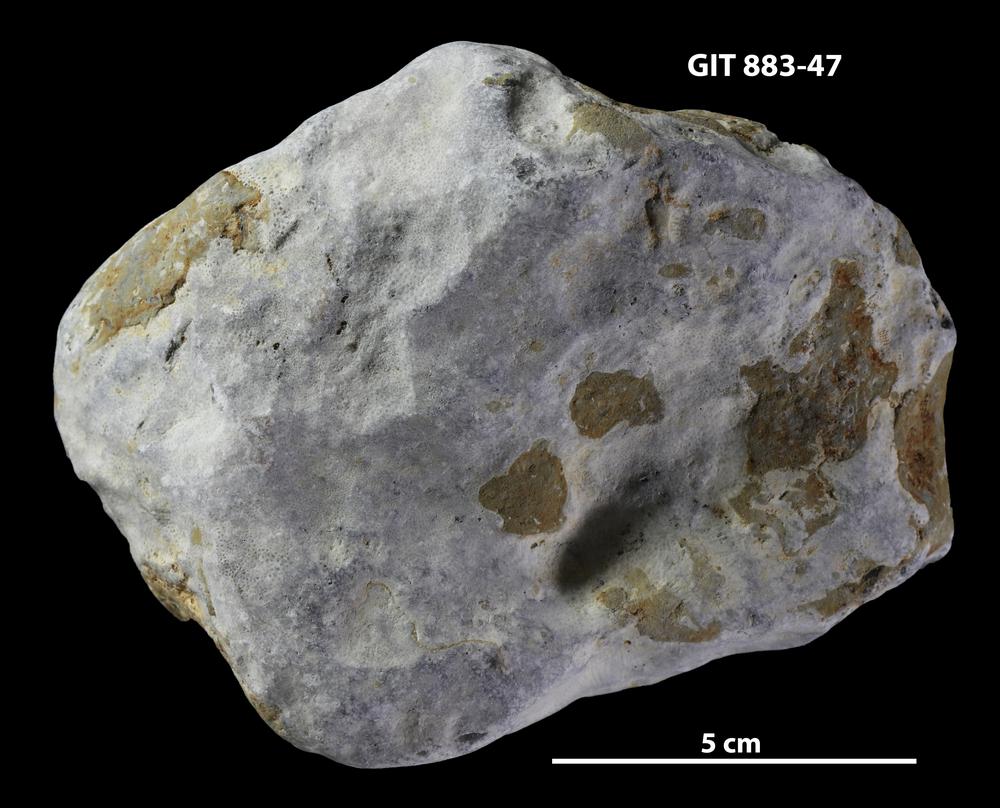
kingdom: Animalia
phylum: Porifera
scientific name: Porifera
